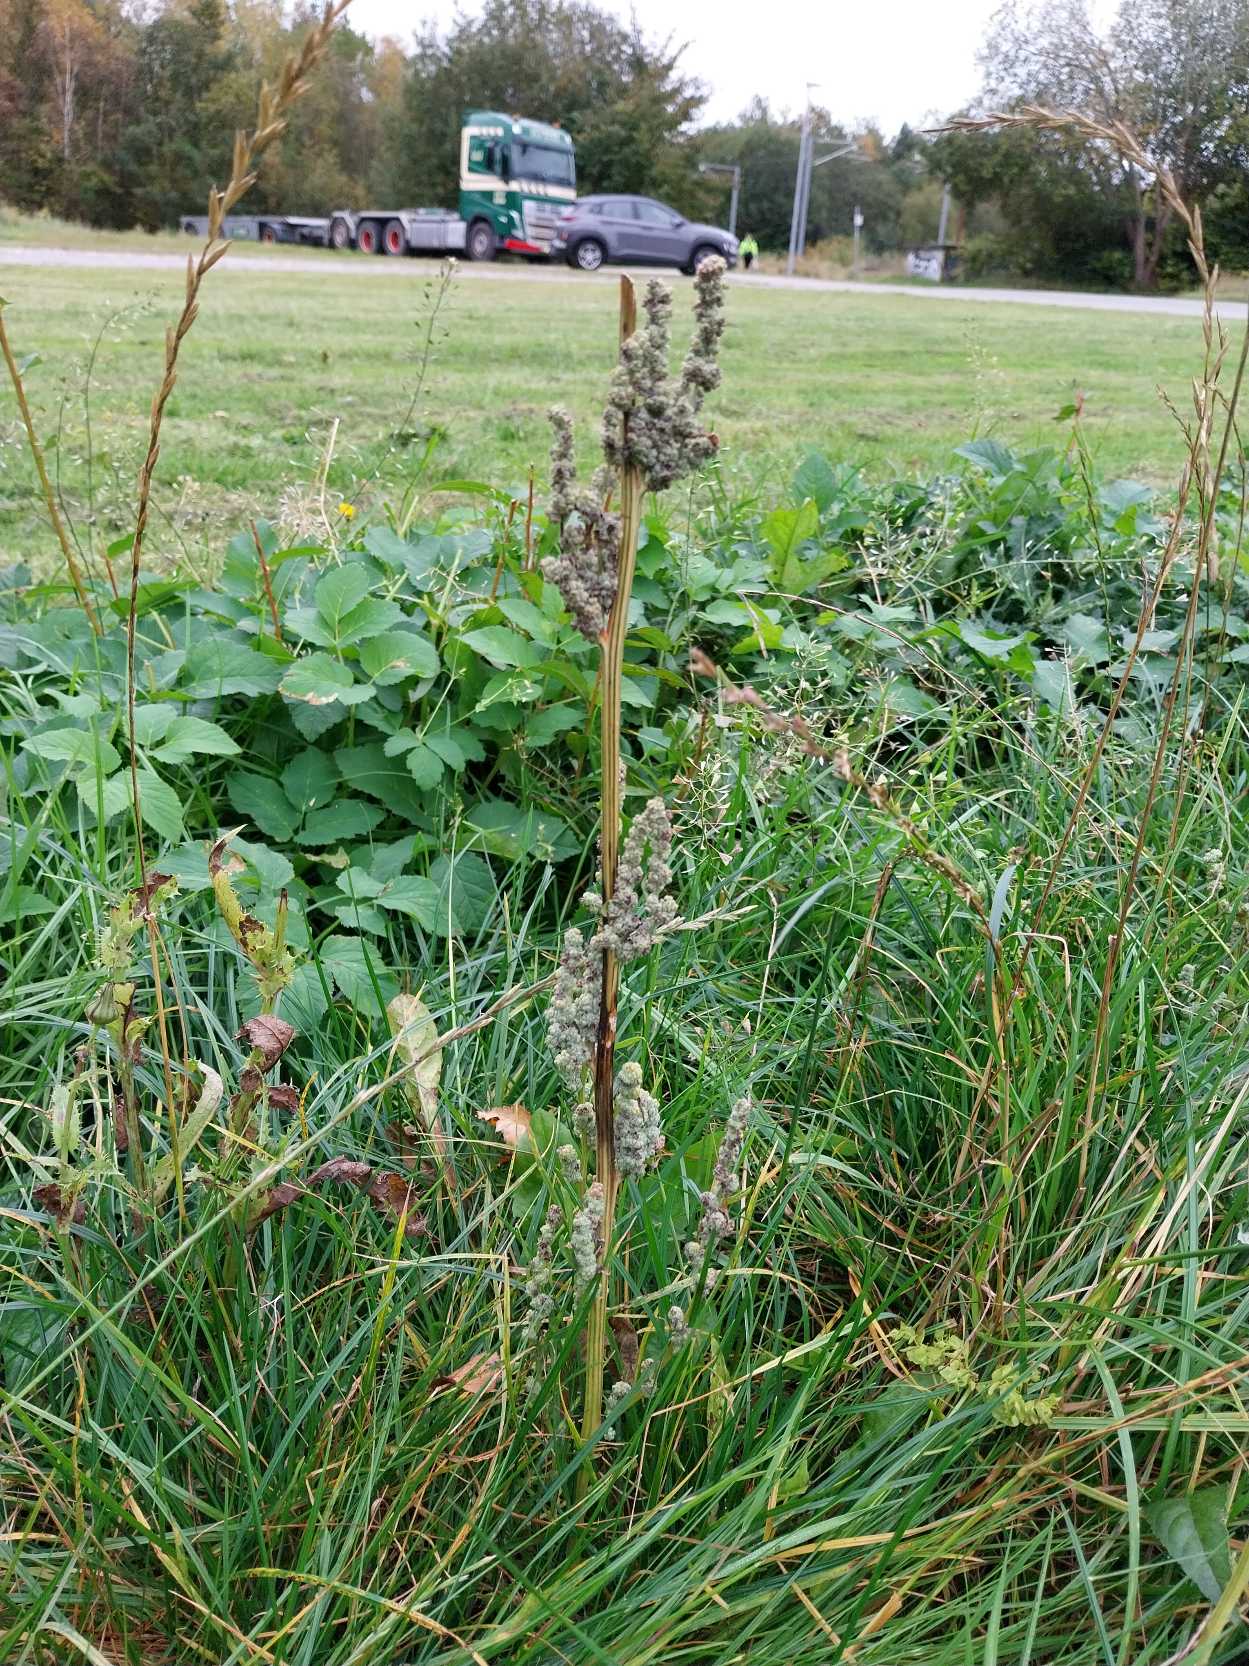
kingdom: Plantae
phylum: Tracheophyta
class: Magnoliopsida
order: Caryophyllales
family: Amaranthaceae
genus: Chenopodium
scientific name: Chenopodium album
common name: Hvidmelet gåsefod
